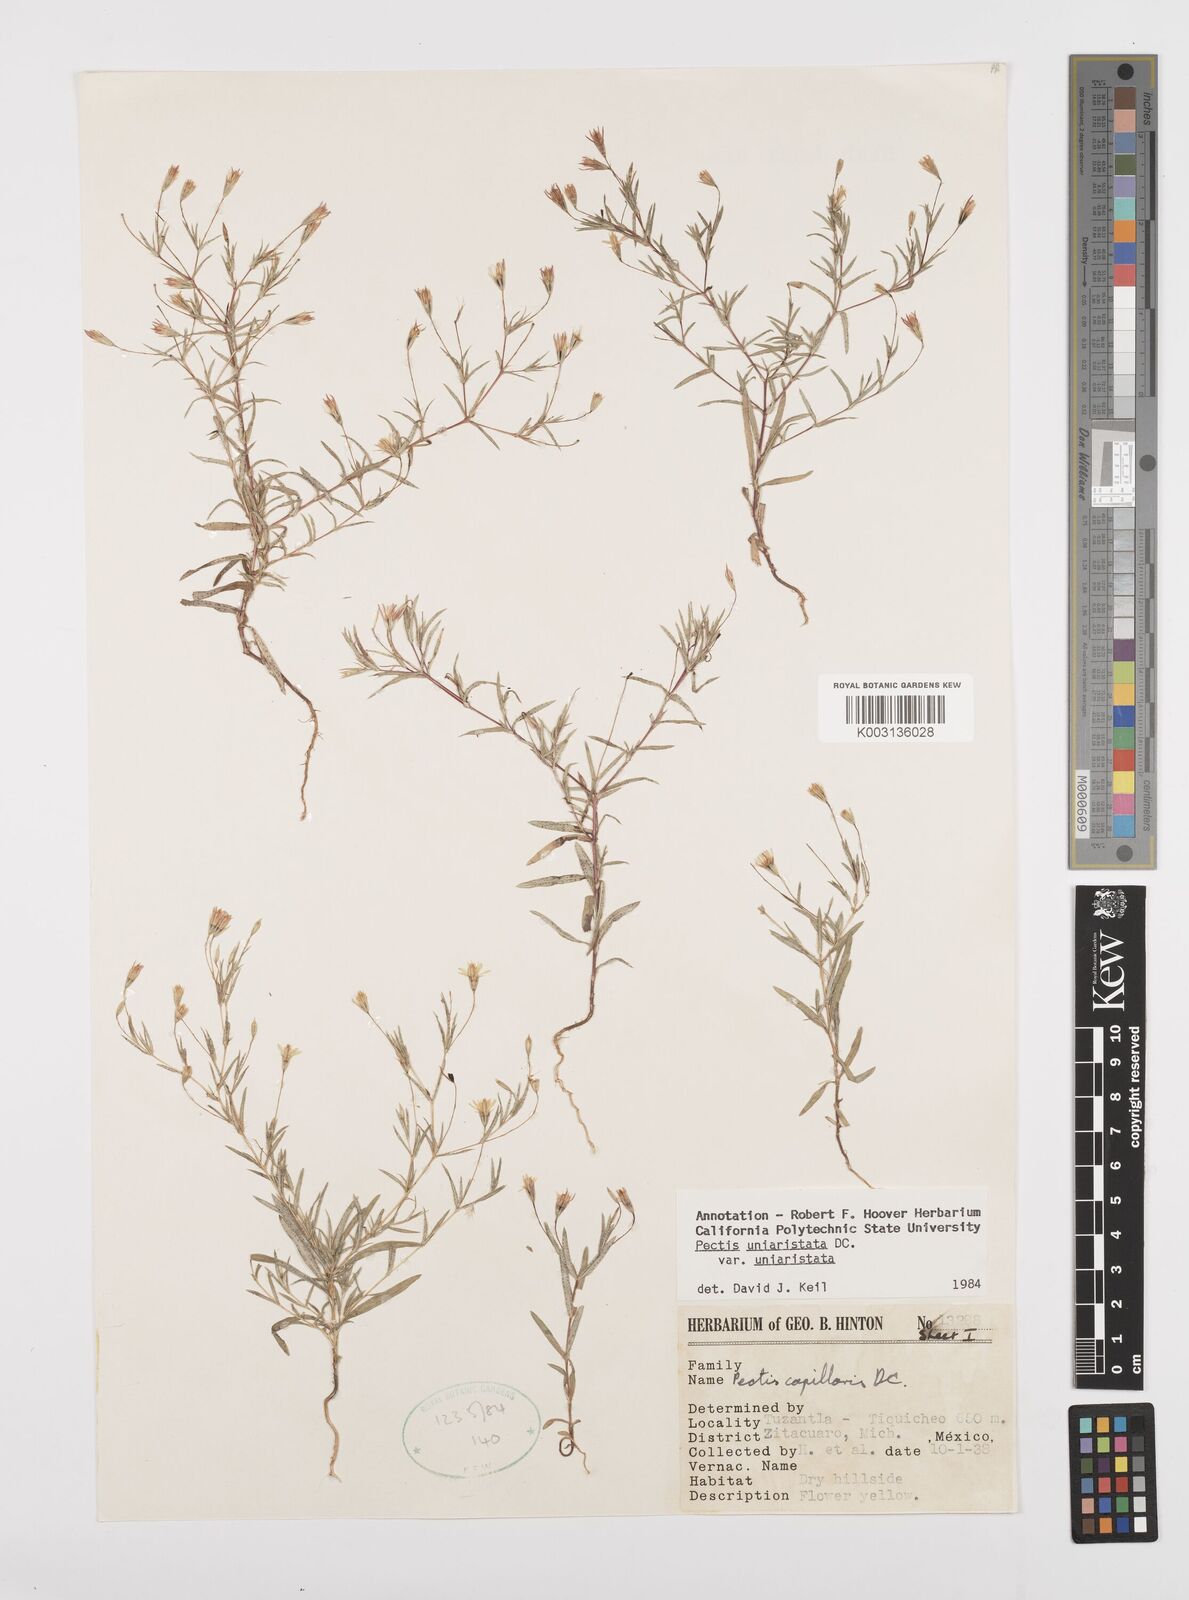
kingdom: Plantae
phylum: Tracheophyta
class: Magnoliopsida
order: Asterales
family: Asteraceae
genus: Pectis
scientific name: Pectis uniaristata
